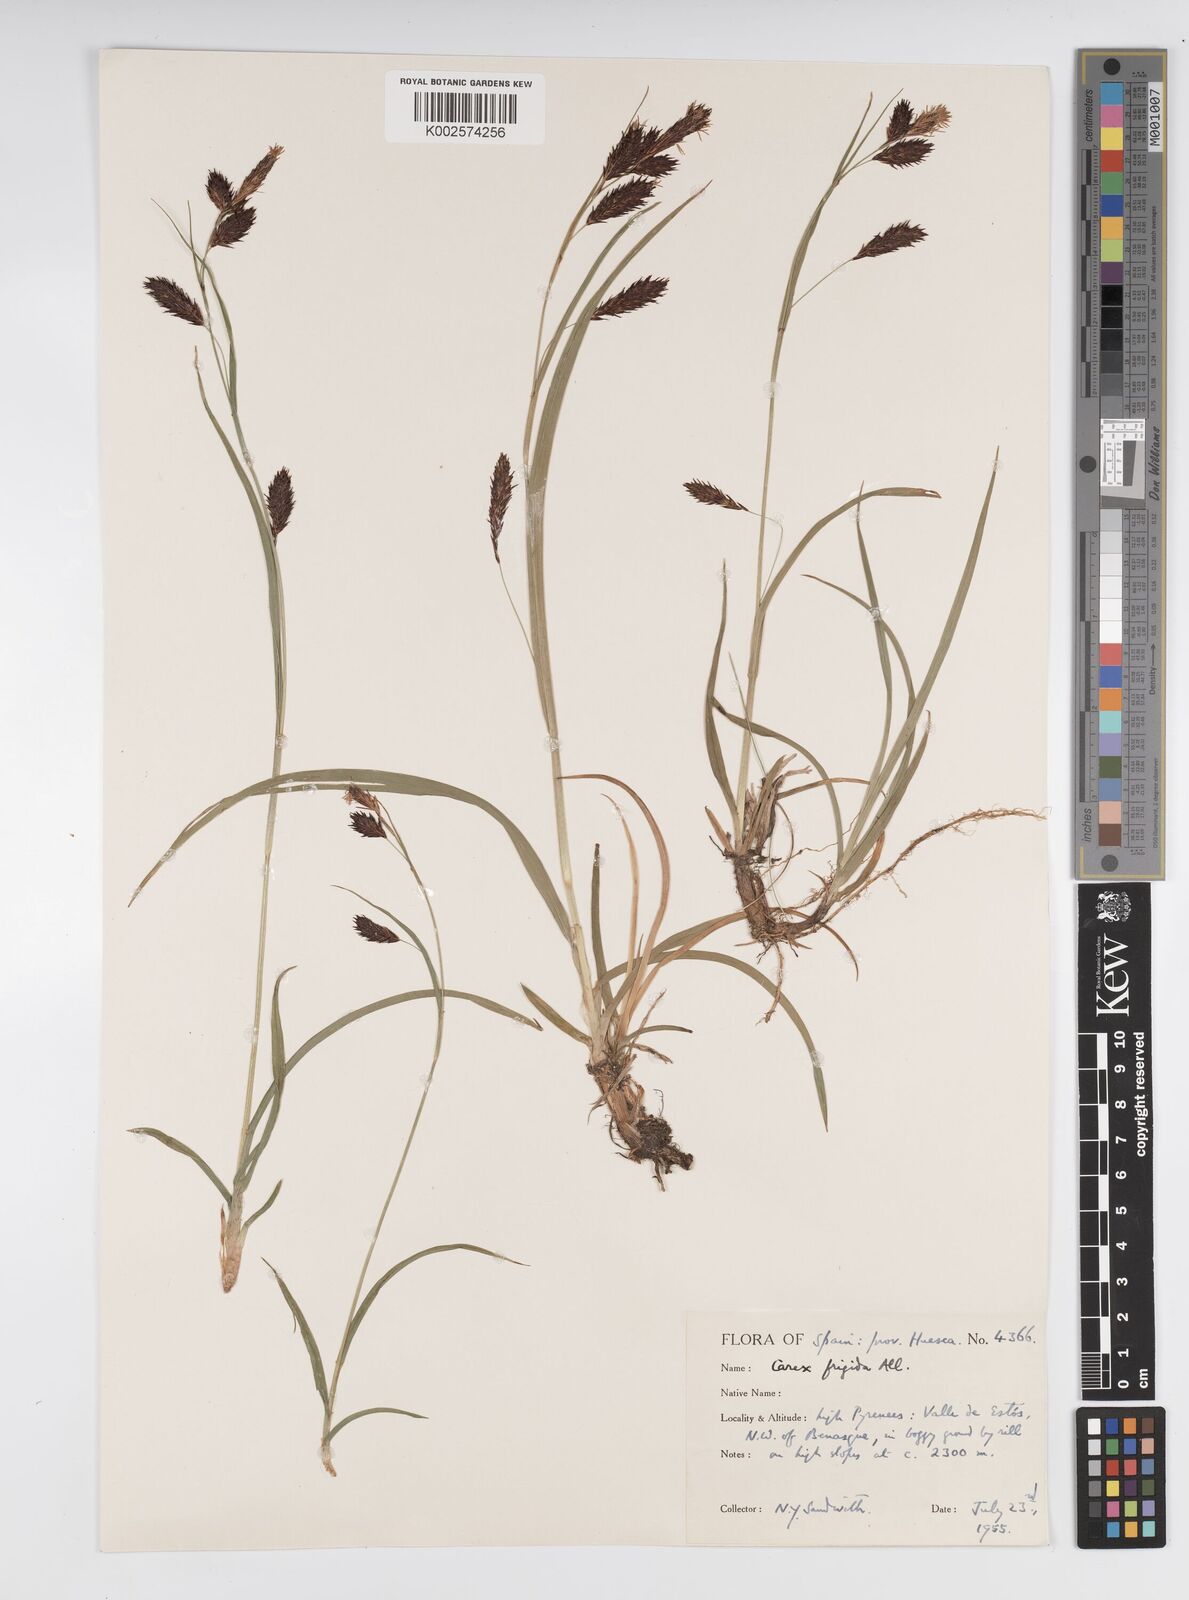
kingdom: Plantae
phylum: Tracheophyta
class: Liliopsida
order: Poales
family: Cyperaceae
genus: Carex
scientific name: Carex frigida
